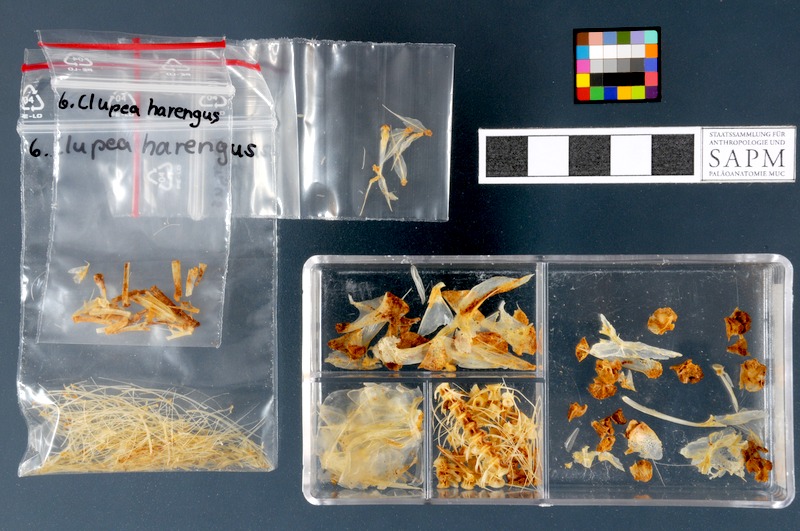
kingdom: Animalia
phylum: Chordata
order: Clupeiformes
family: Clupeidae
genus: Clupea
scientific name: Clupea harengus
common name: Herring
